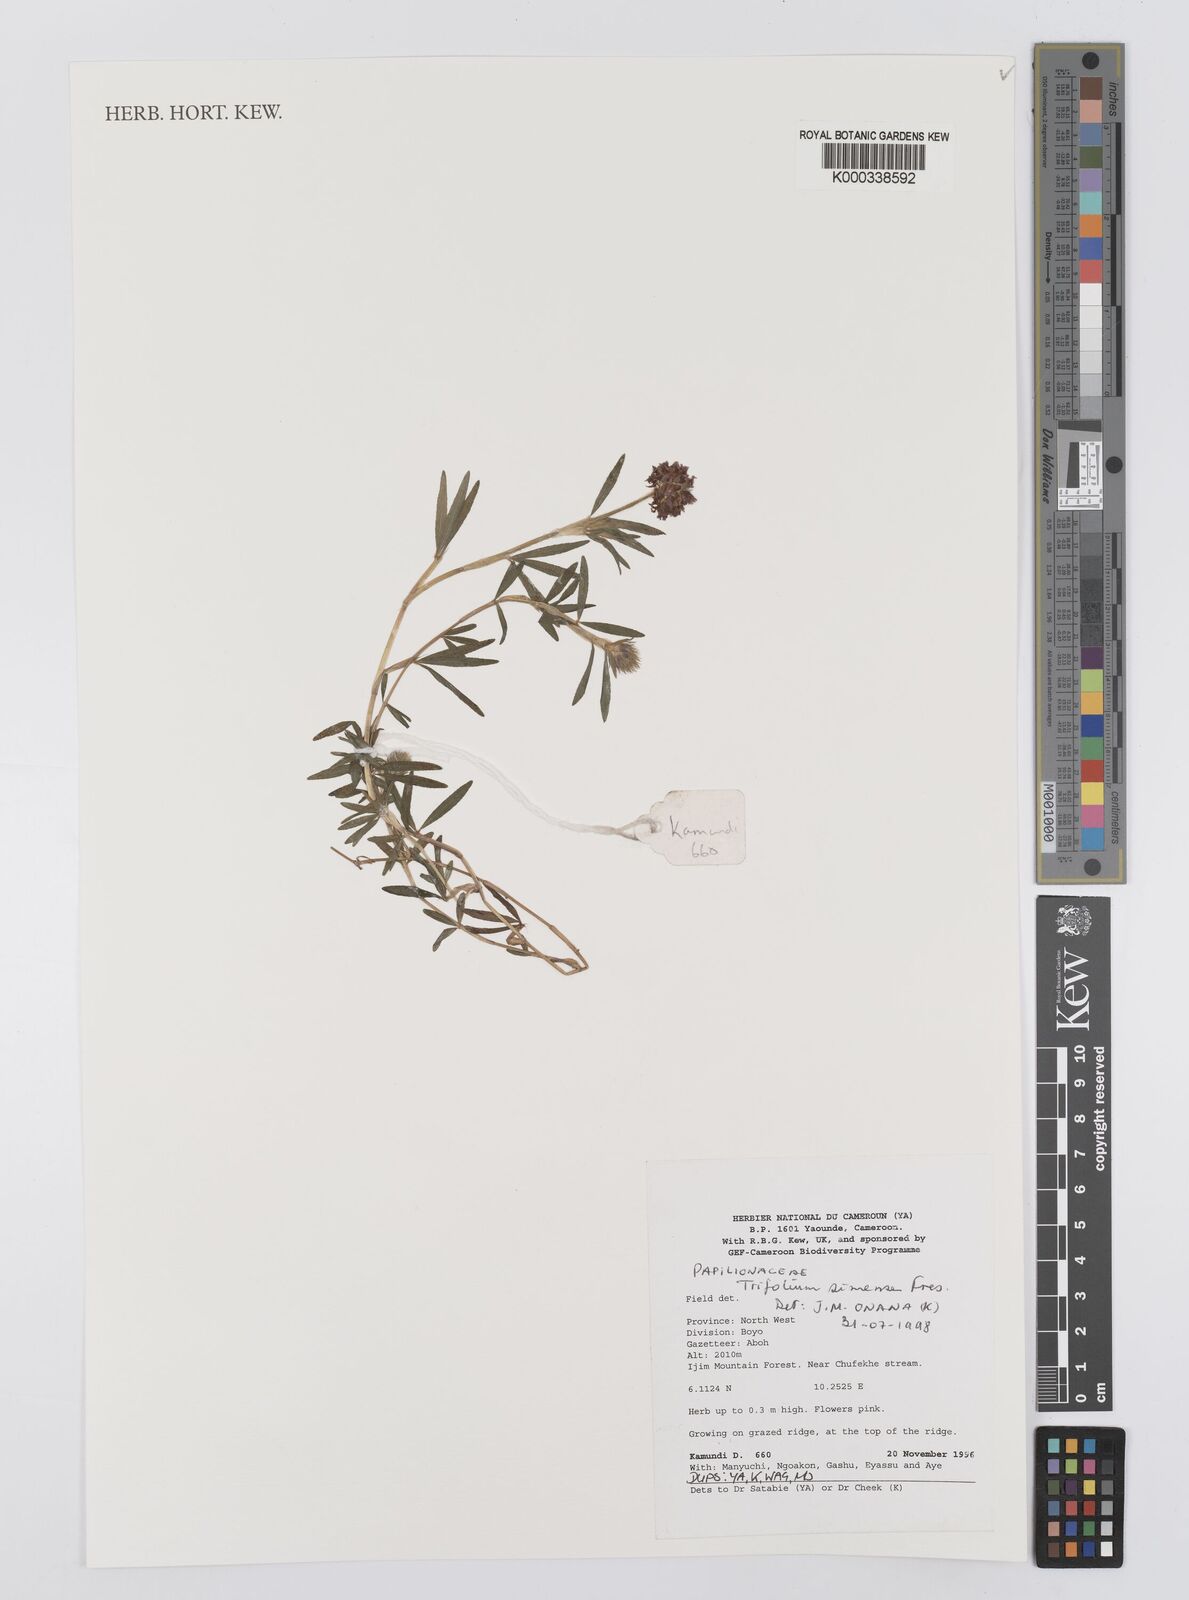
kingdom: Plantae
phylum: Tracheophyta
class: Magnoliopsida
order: Fabales
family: Fabaceae
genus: Trifolium
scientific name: Trifolium simense
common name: Simen clover
